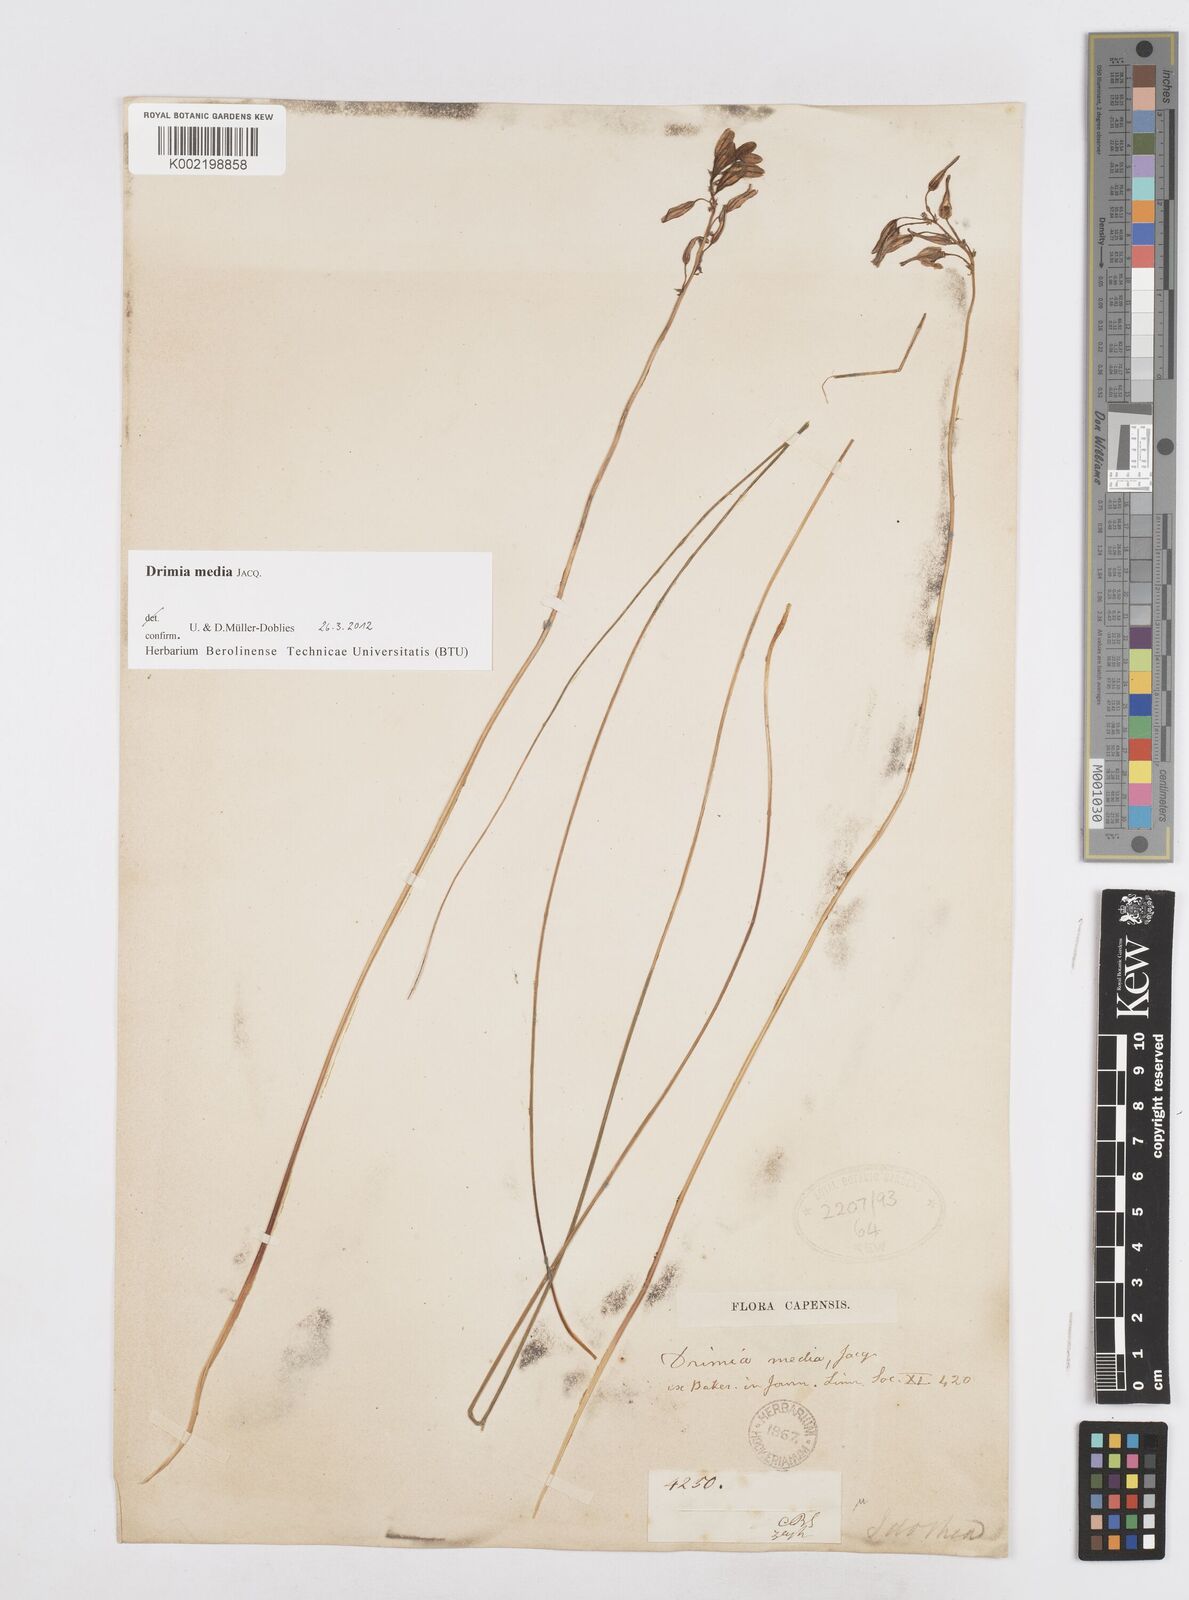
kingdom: Plantae
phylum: Tracheophyta
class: Liliopsida
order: Asparagales
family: Asparagaceae
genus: Drimia
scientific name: Drimia media
